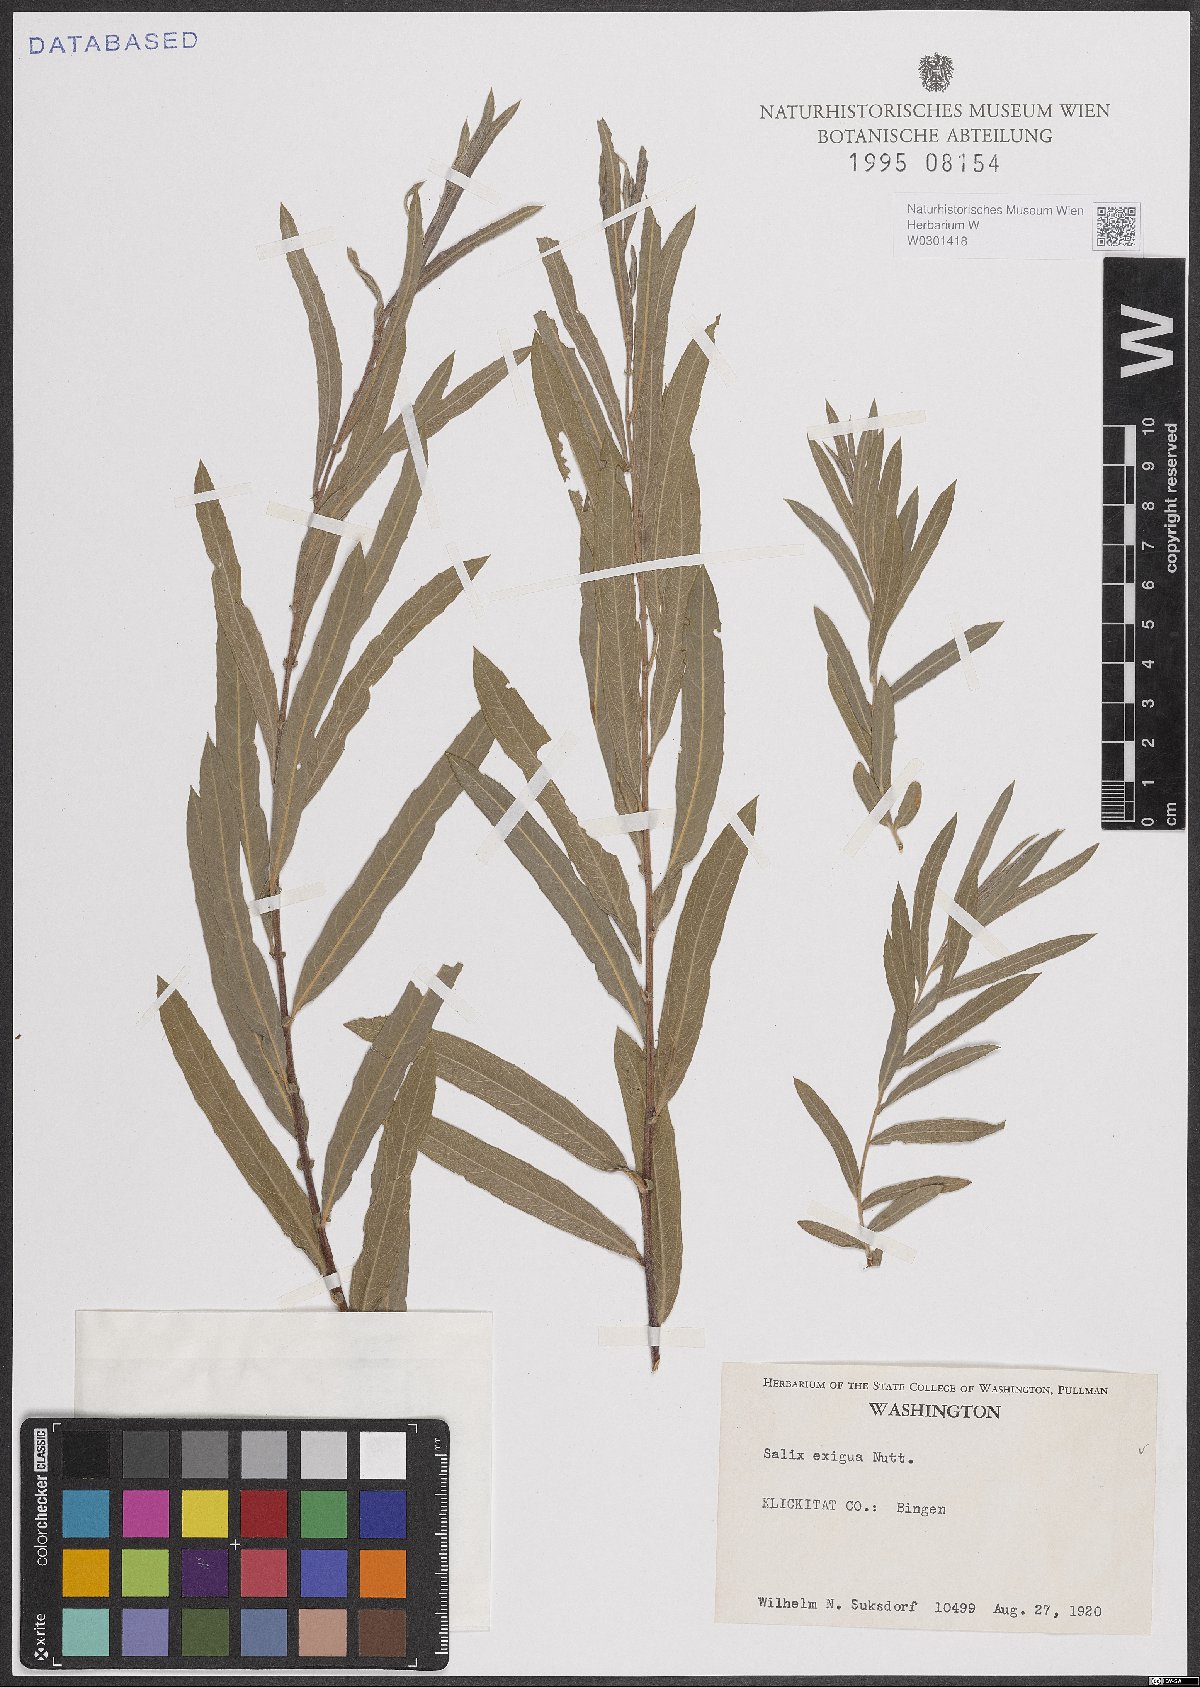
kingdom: Plantae
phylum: Tracheophyta
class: Magnoliopsida
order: Malpighiales
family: Salicaceae
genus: Salix
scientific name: Salix exigua
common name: Coyote willow
